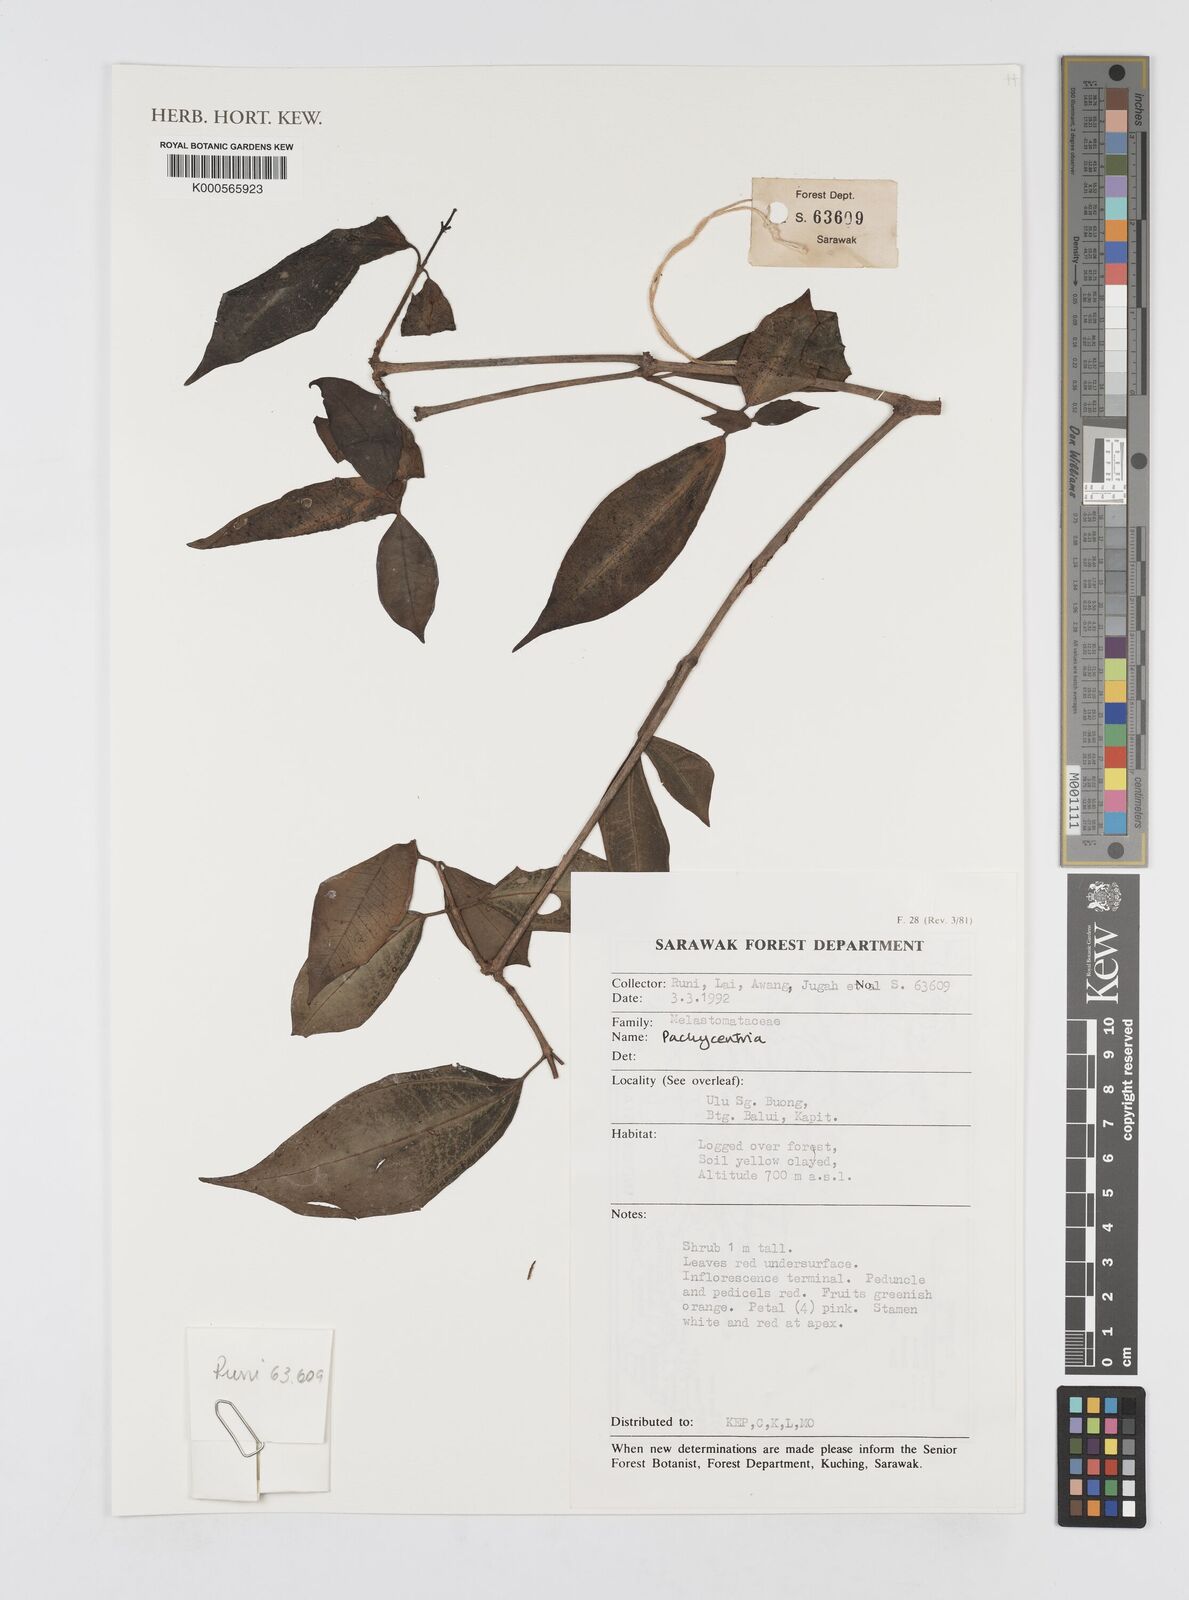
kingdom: Plantae
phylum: Tracheophyta
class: Magnoliopsida
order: Myrtales
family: Melastomataceae
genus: Pachycentria
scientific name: Pachycentria
